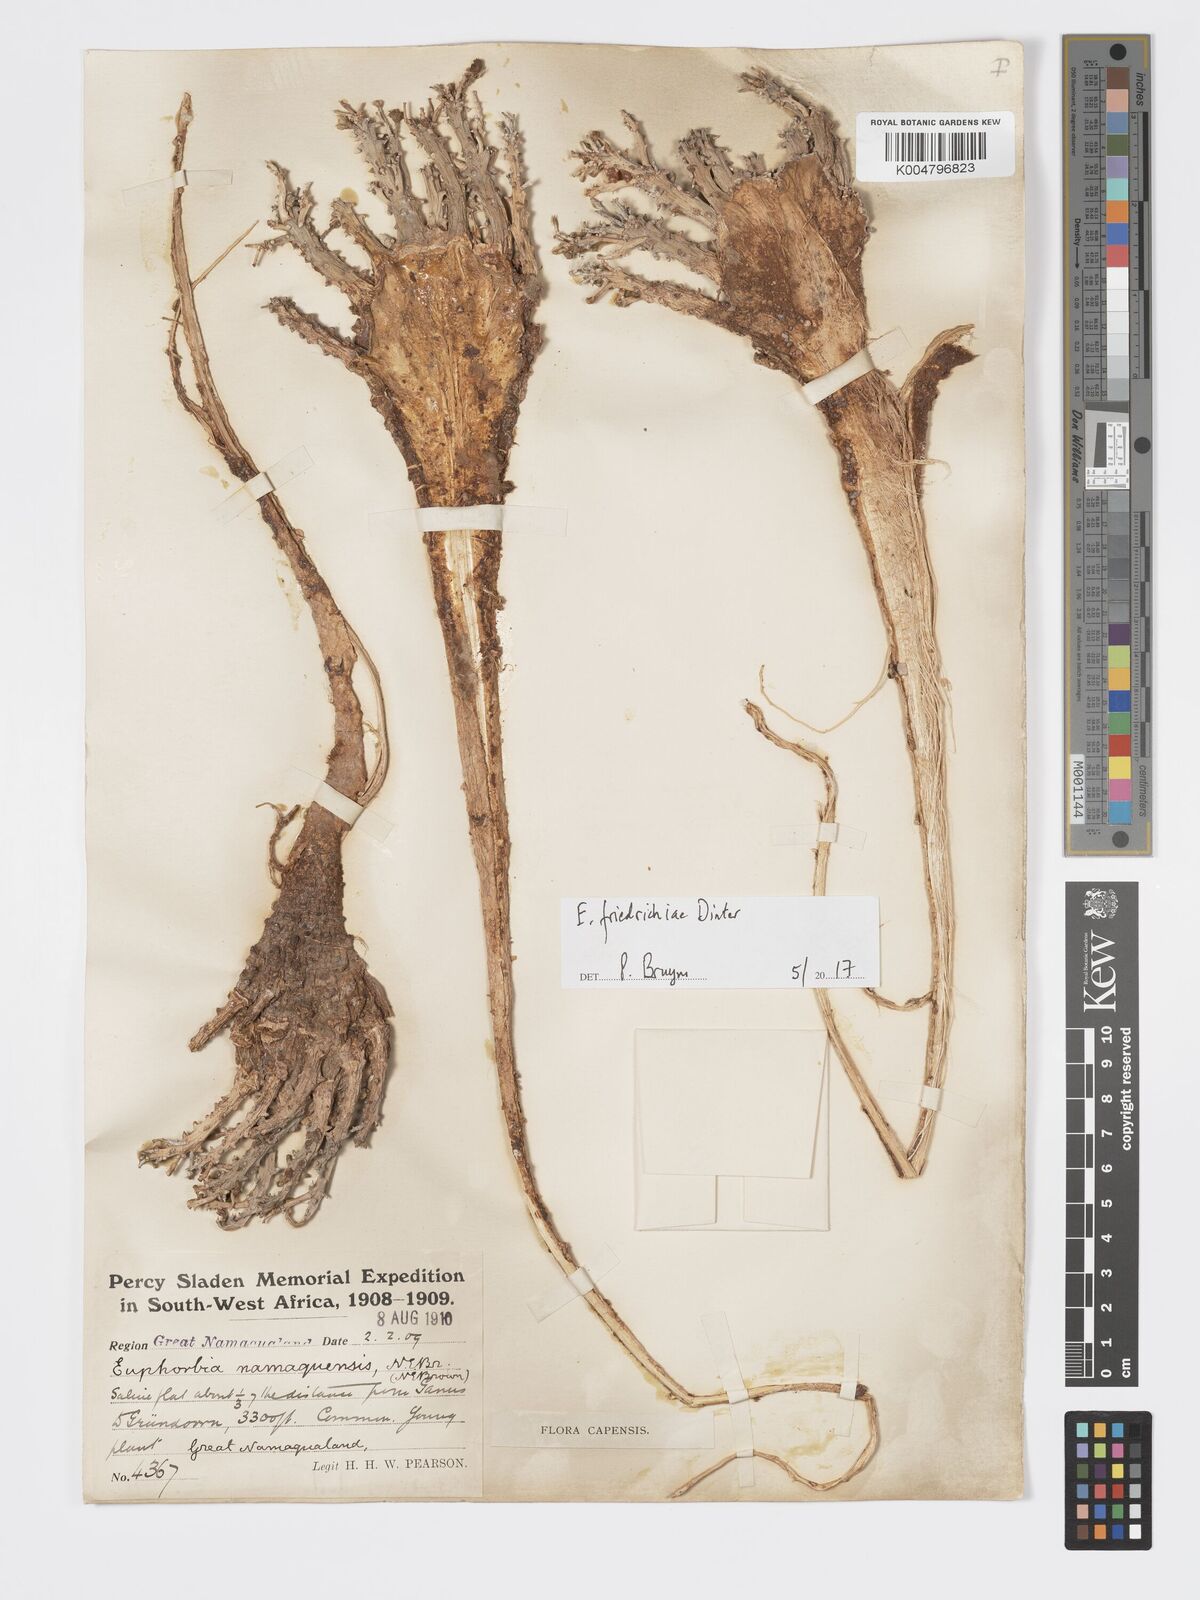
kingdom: Plantae
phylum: Tracheophyta
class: Magnoliopsida
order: Malpighiales
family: Euphorbiaceae
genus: Euphorbia
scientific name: Euphorbia friedrichiae
